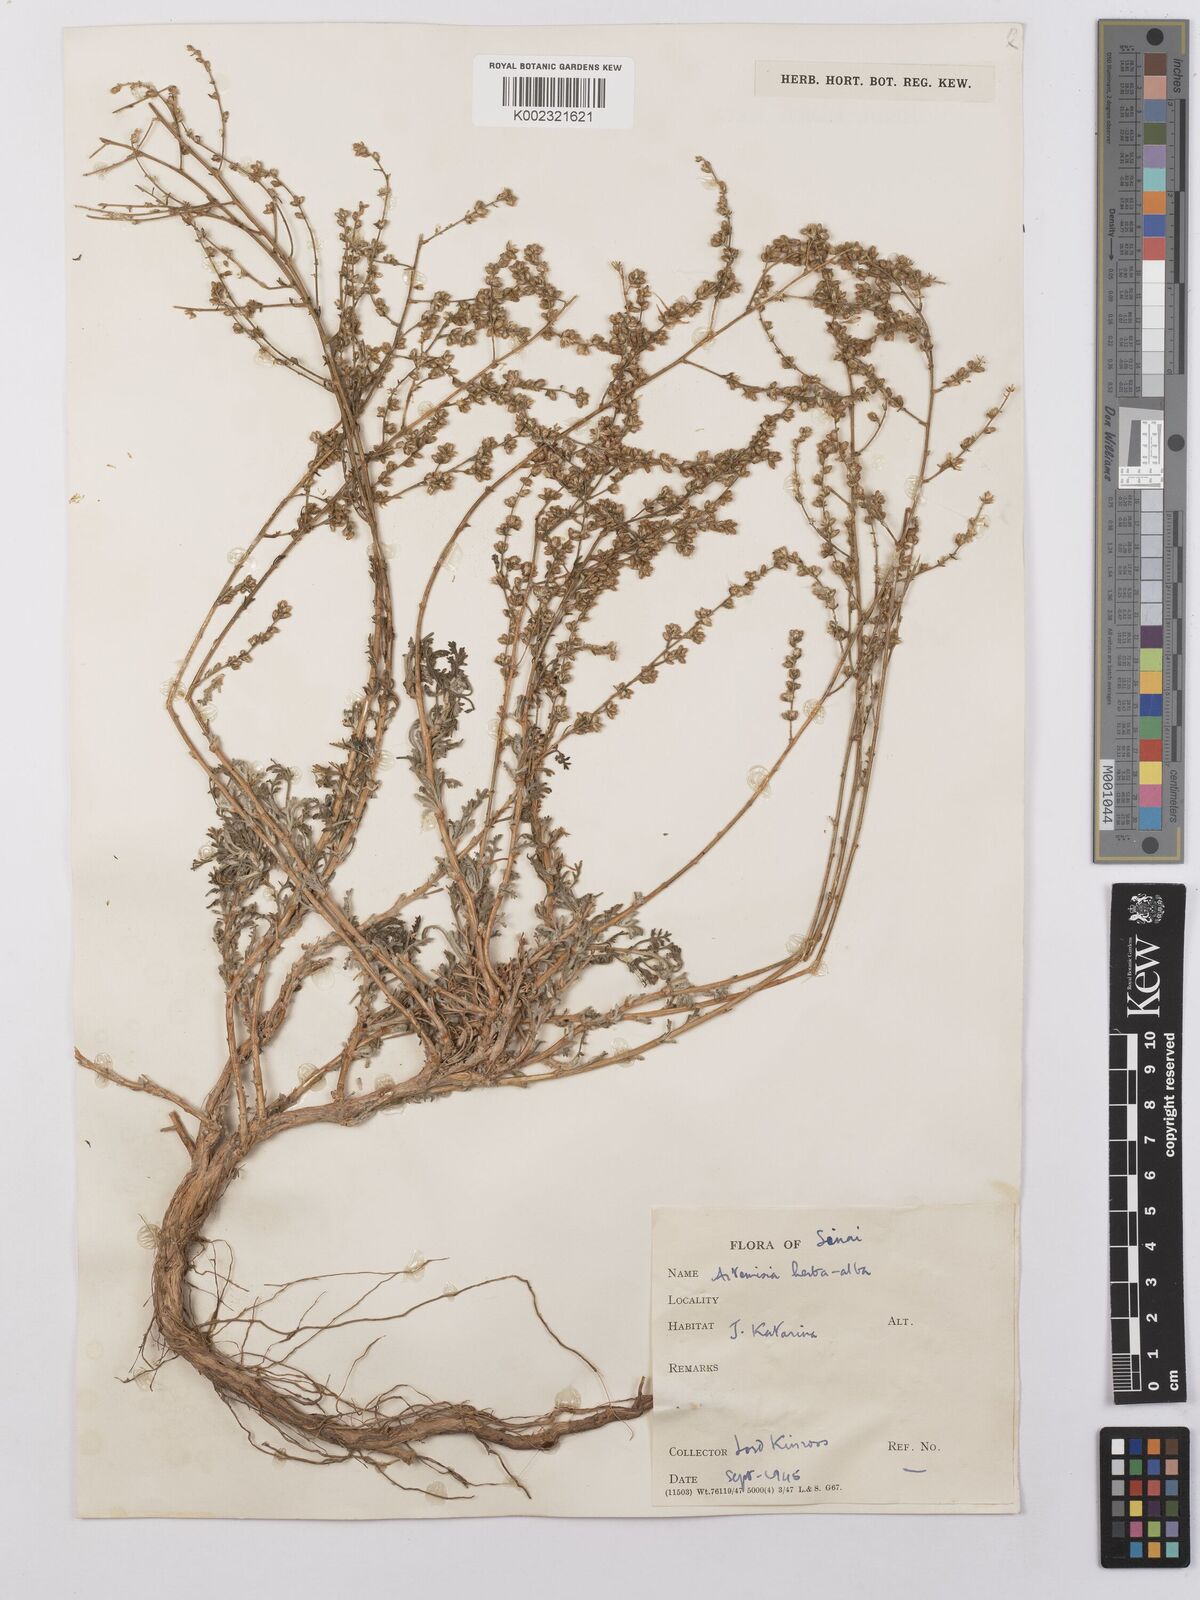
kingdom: Plantae
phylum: Tracheophyta
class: Magnoliopsida
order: Asterales
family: Asteraceae
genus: Artemisia
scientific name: Artemisia herba-alba
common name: White wormwood
